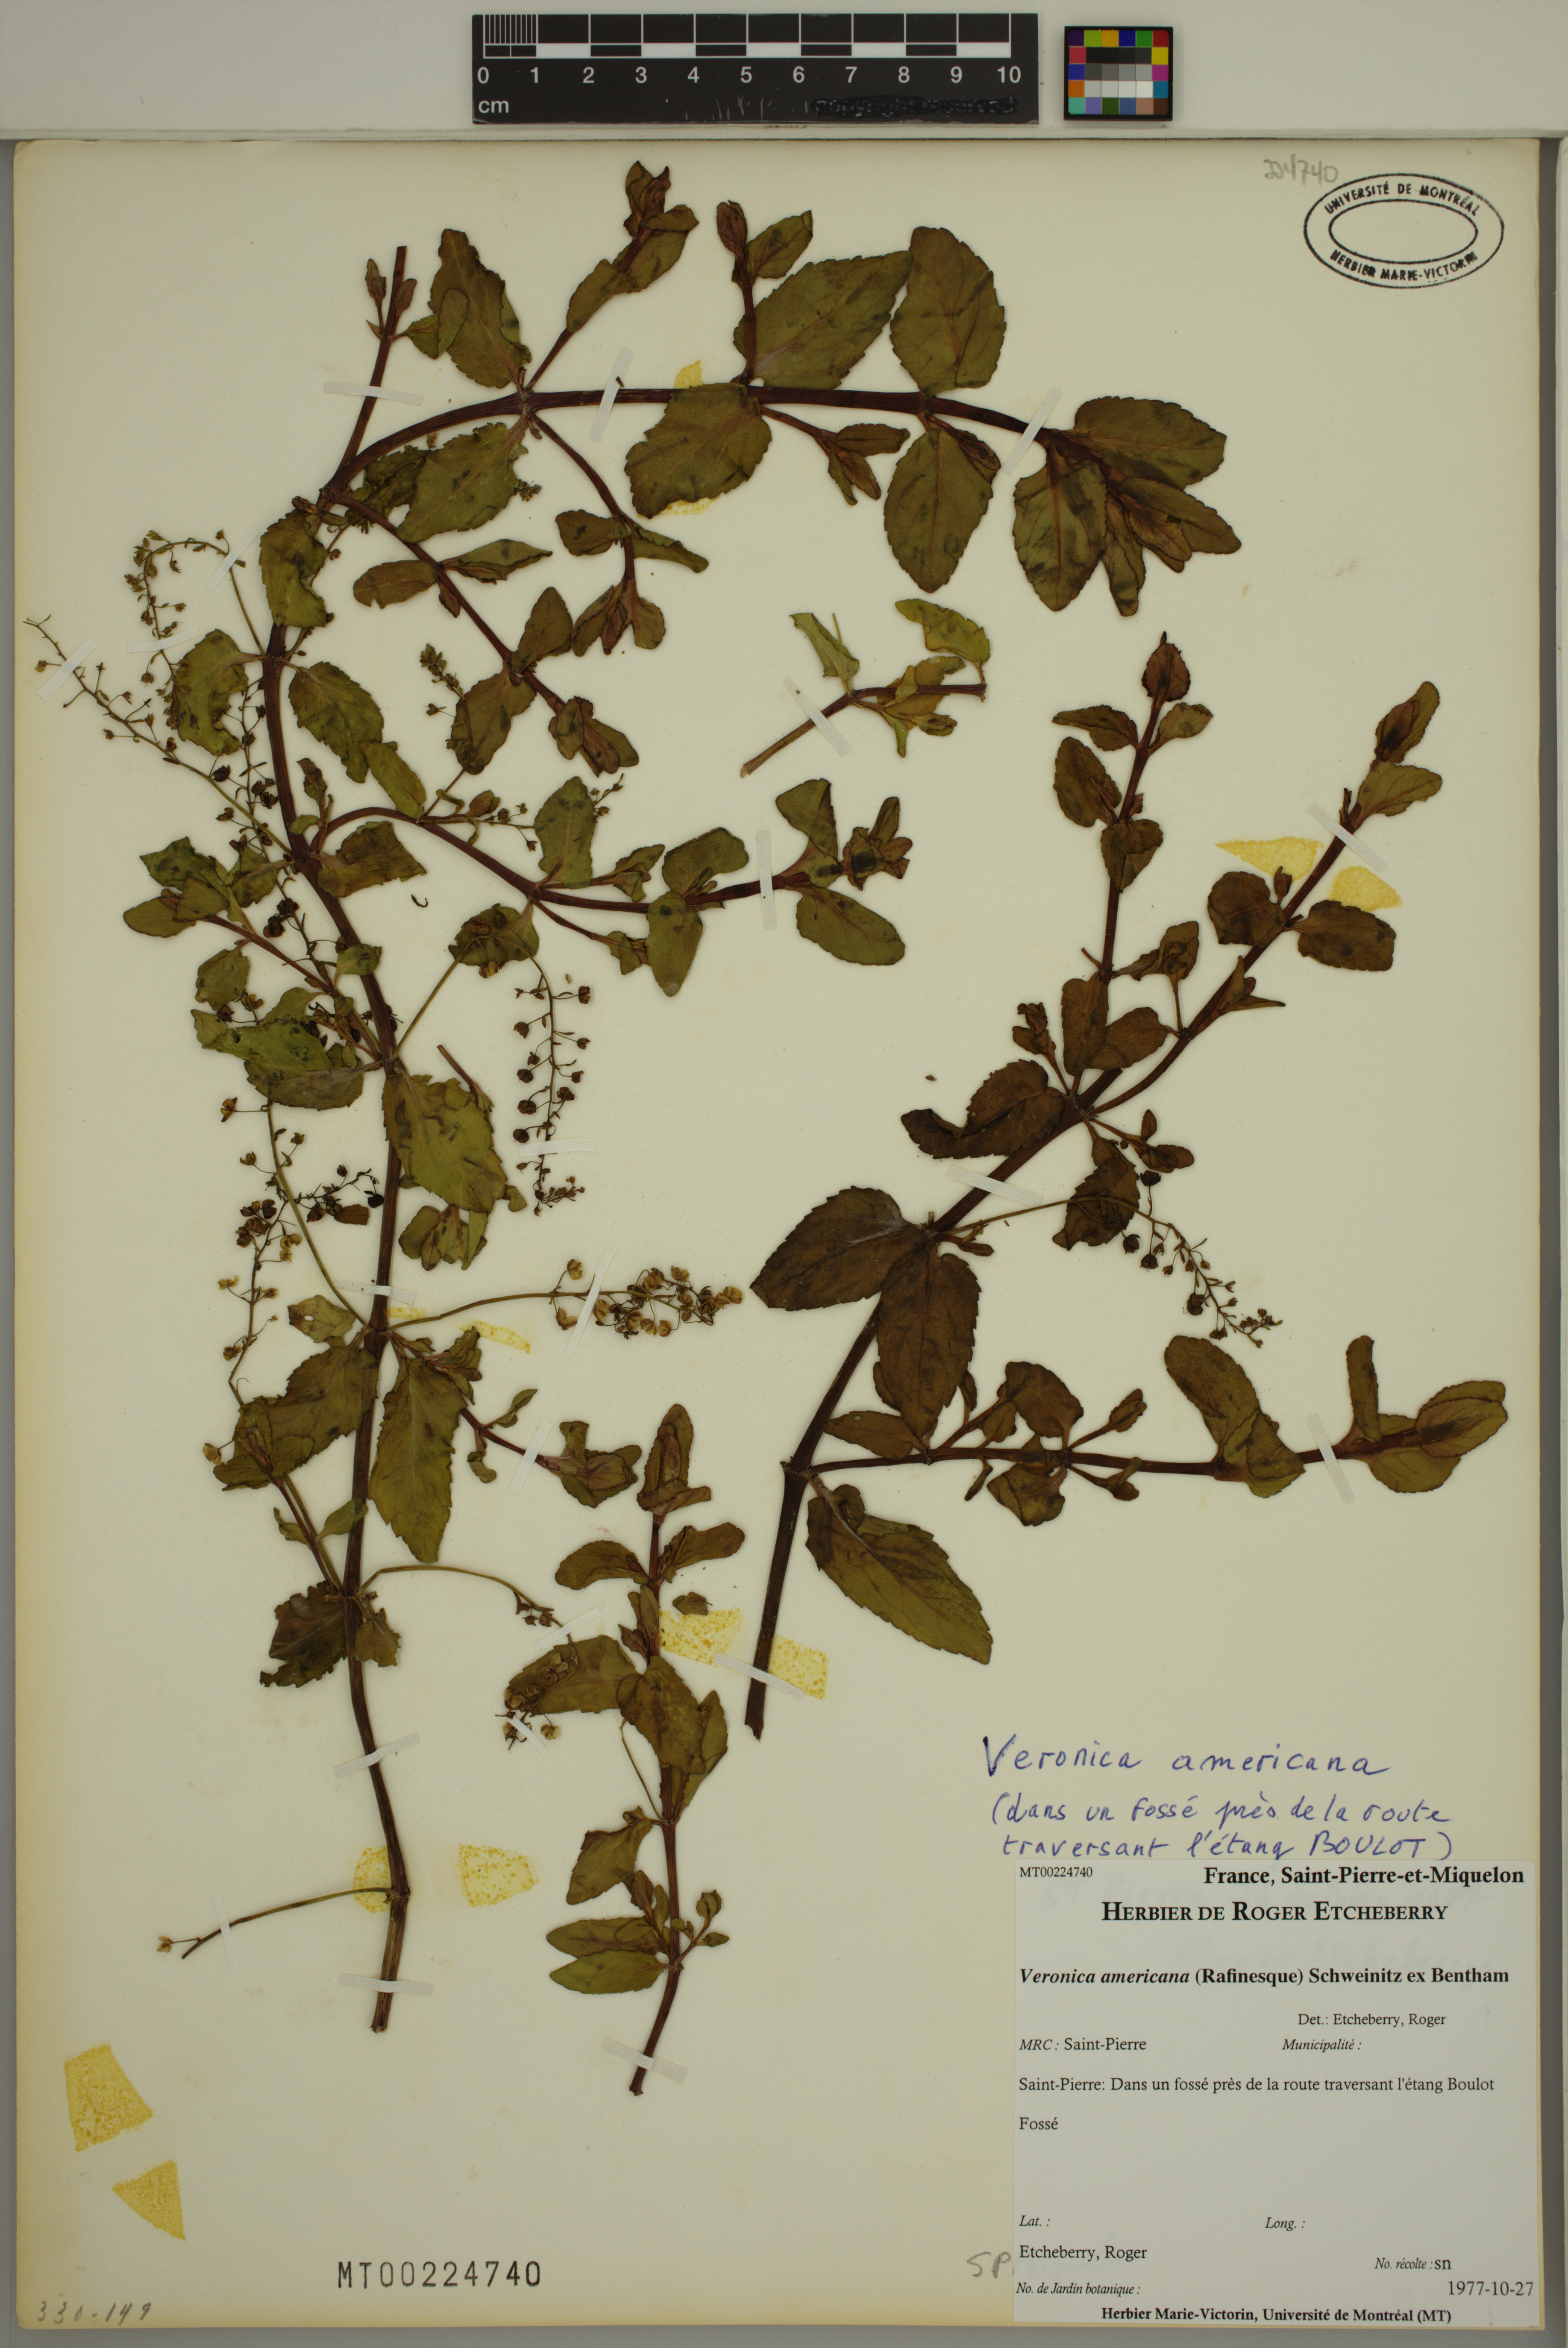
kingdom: Plantae
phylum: Tracheophyta
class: Magnoliopsida
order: Lamiales
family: Plantaginaceae
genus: Veronica
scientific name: Veronica americana
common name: American brooklime
